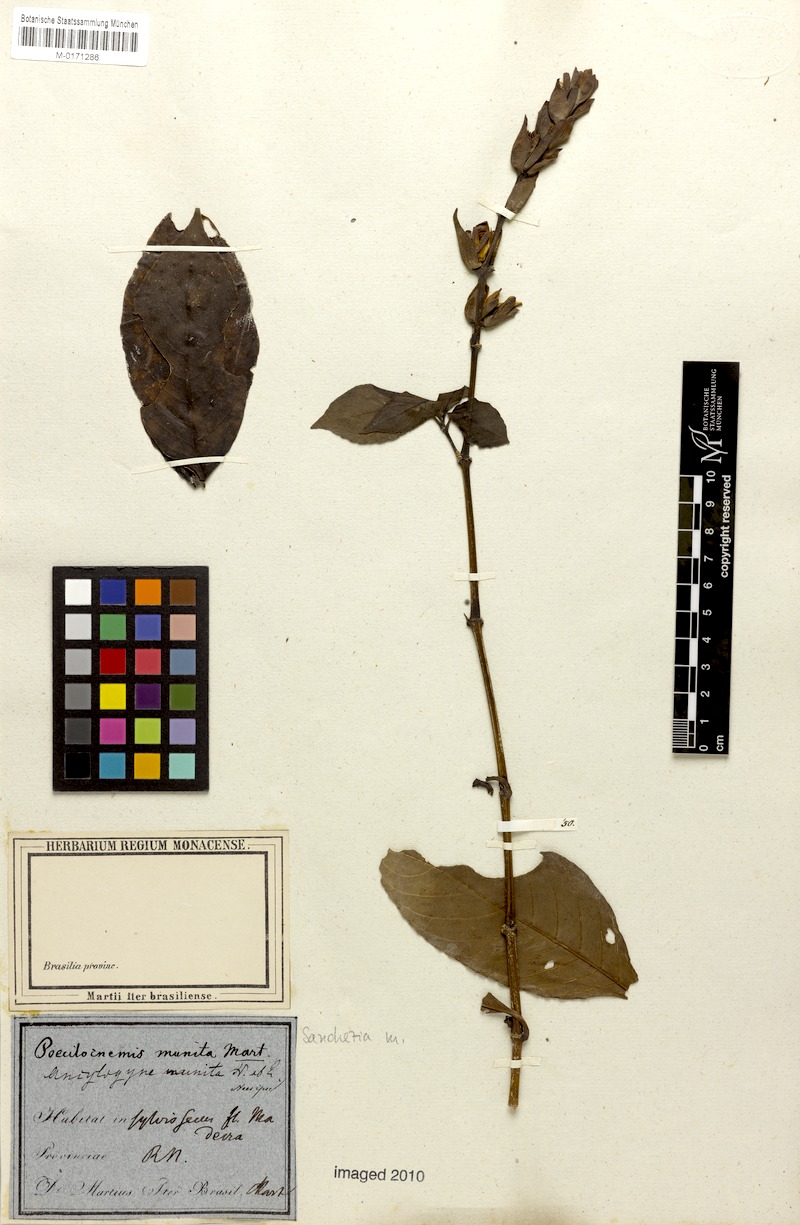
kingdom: Plantae
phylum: Tracheophyta
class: Magnoliopsida
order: Lamiales
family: Acanthaceae
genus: Sanchezia
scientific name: Sanchezia munita
